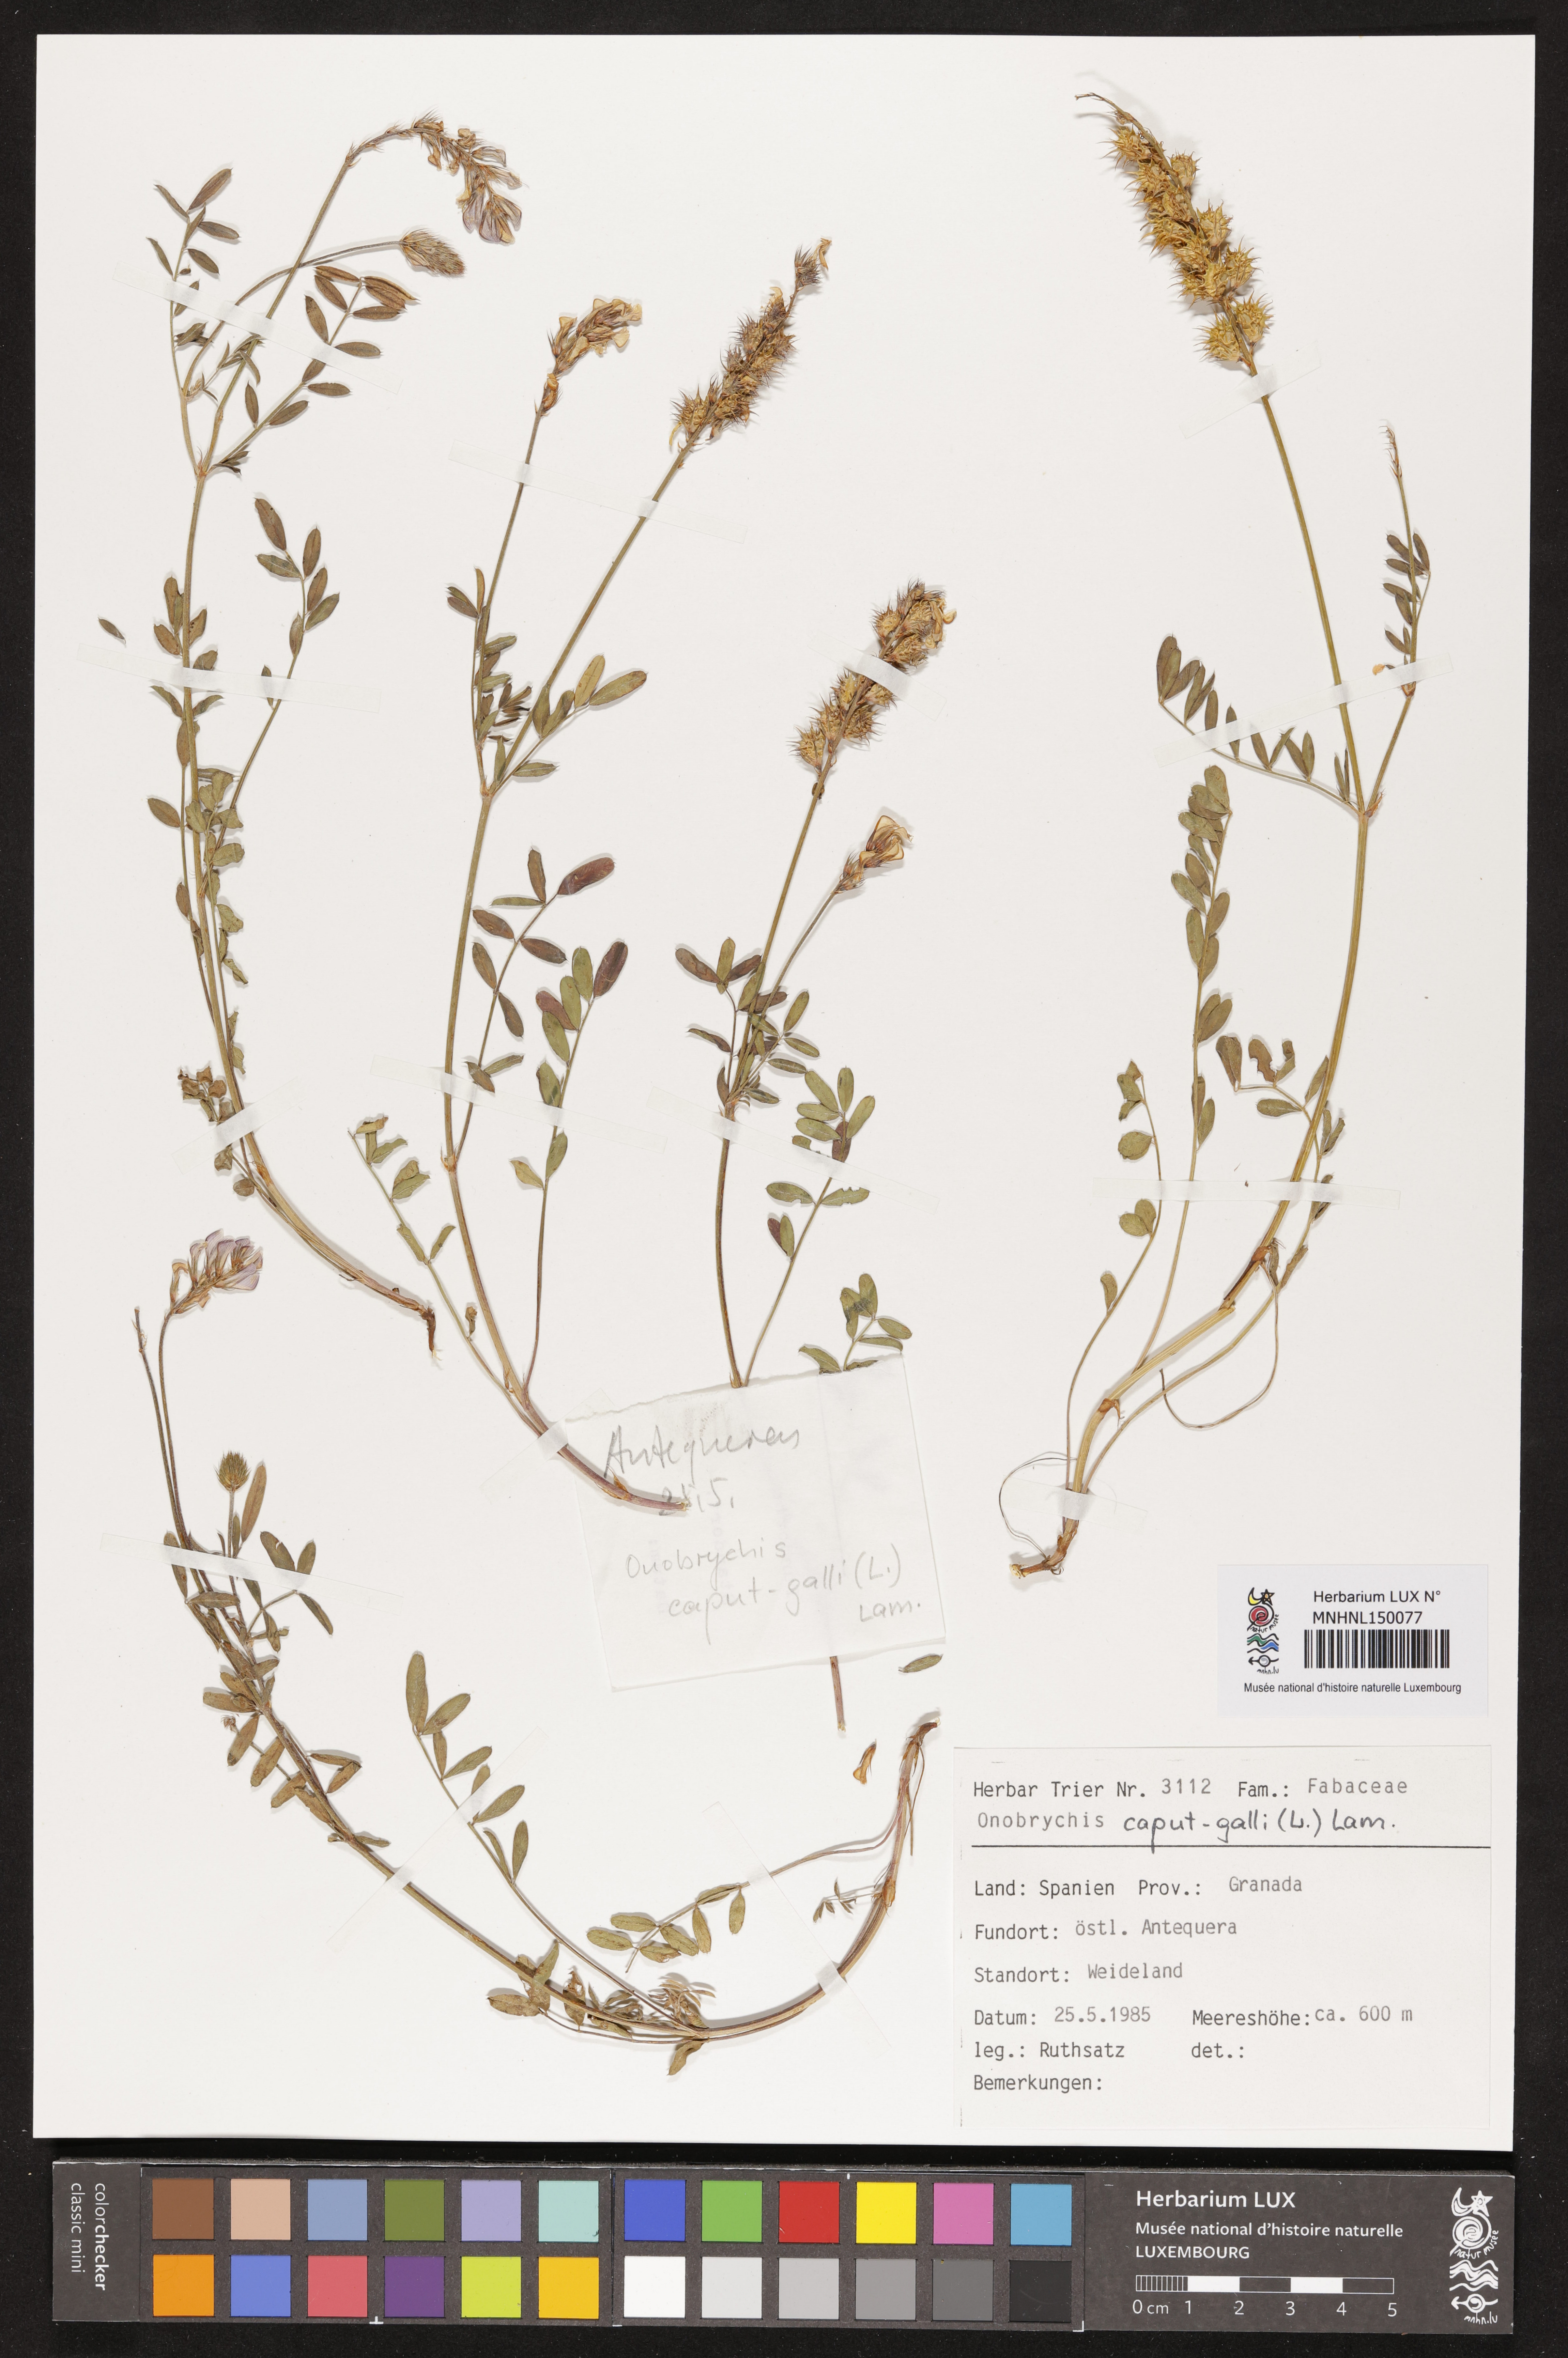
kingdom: Plantae
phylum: Tracheophyta
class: Magnoliopsida
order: Fabales
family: Fabaceae
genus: Onobrychis
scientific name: Onobrychis caput-galli
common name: Cockscomb sainfoin
